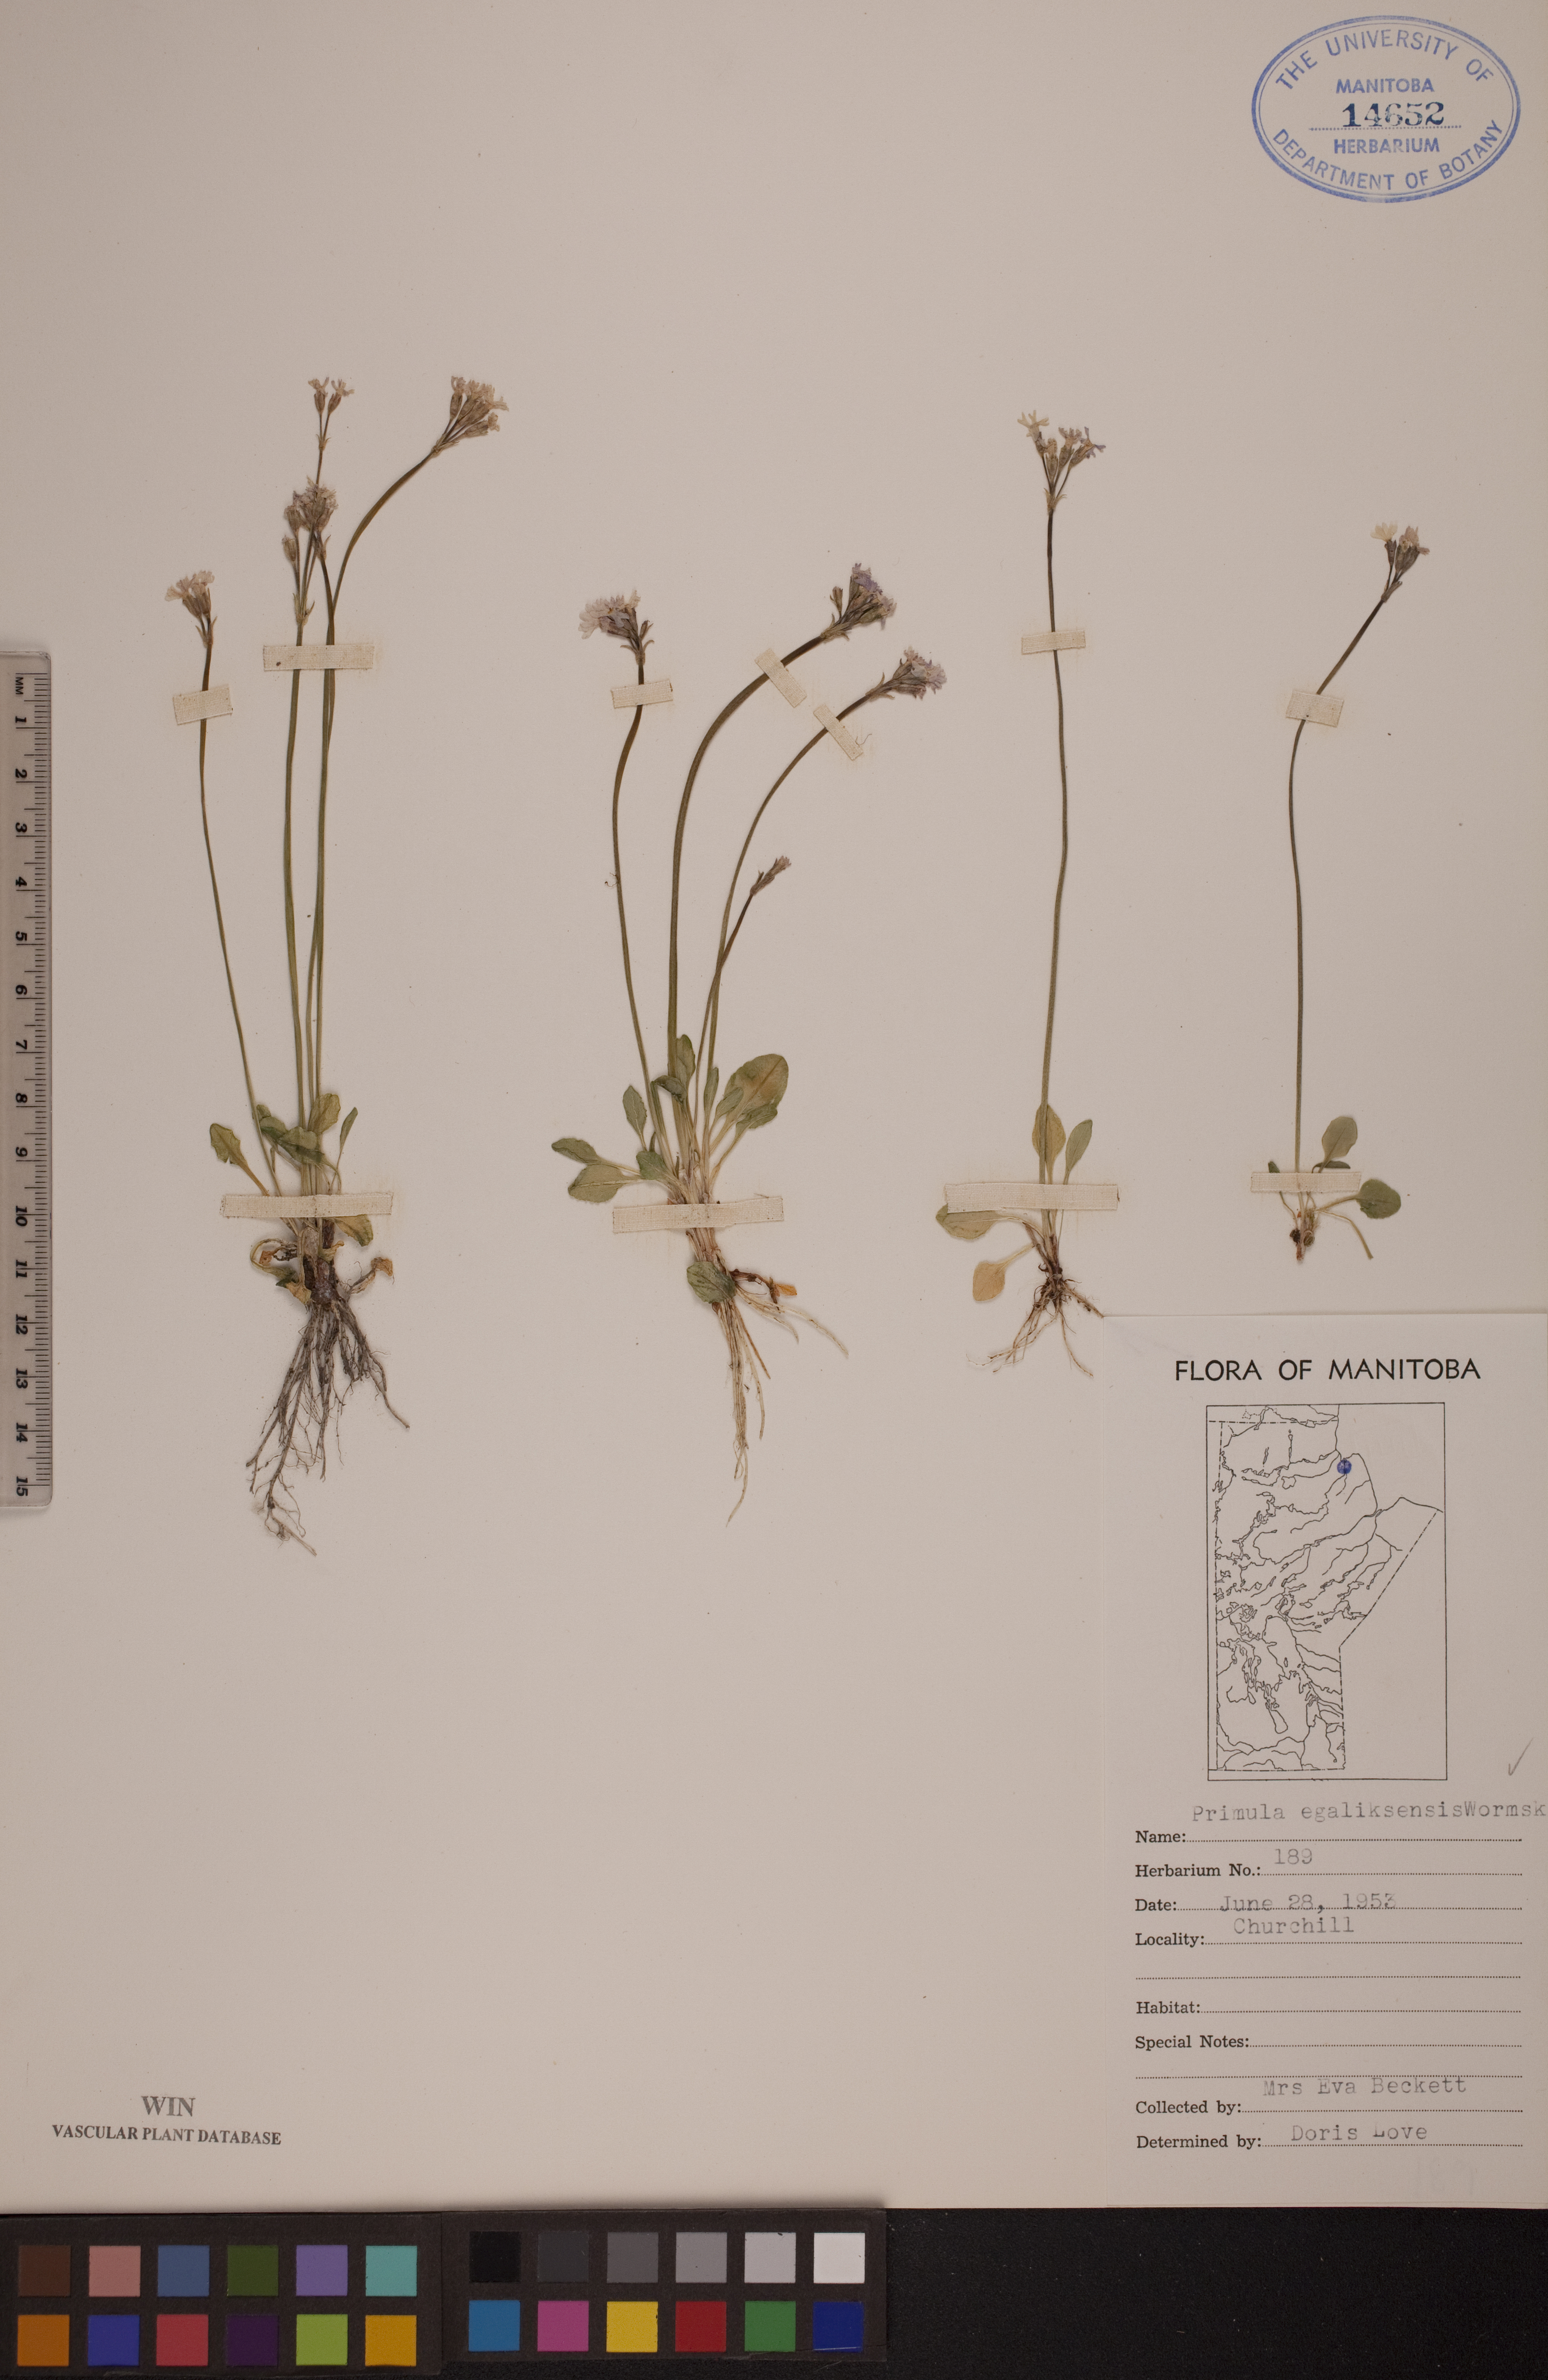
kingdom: Plantae
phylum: Tracheophyta
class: Magnoliopsida
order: Ericales
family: Primulaceae
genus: Primula
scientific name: Primula egaliksensis
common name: Greenland primrose
